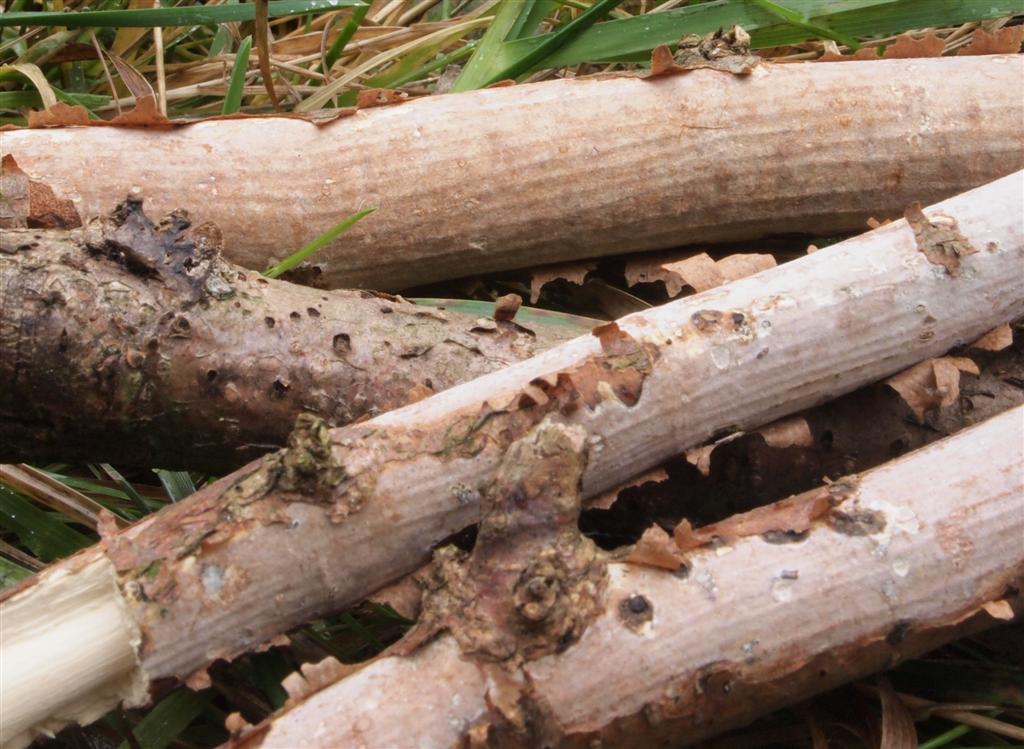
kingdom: Fungi
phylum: Basidiomycota
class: Agaricomycetes
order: Corticiales
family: Vuilleminiaceae
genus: Vuilleminia
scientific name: Vuilleminia coryli
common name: hassel-barksprænger
